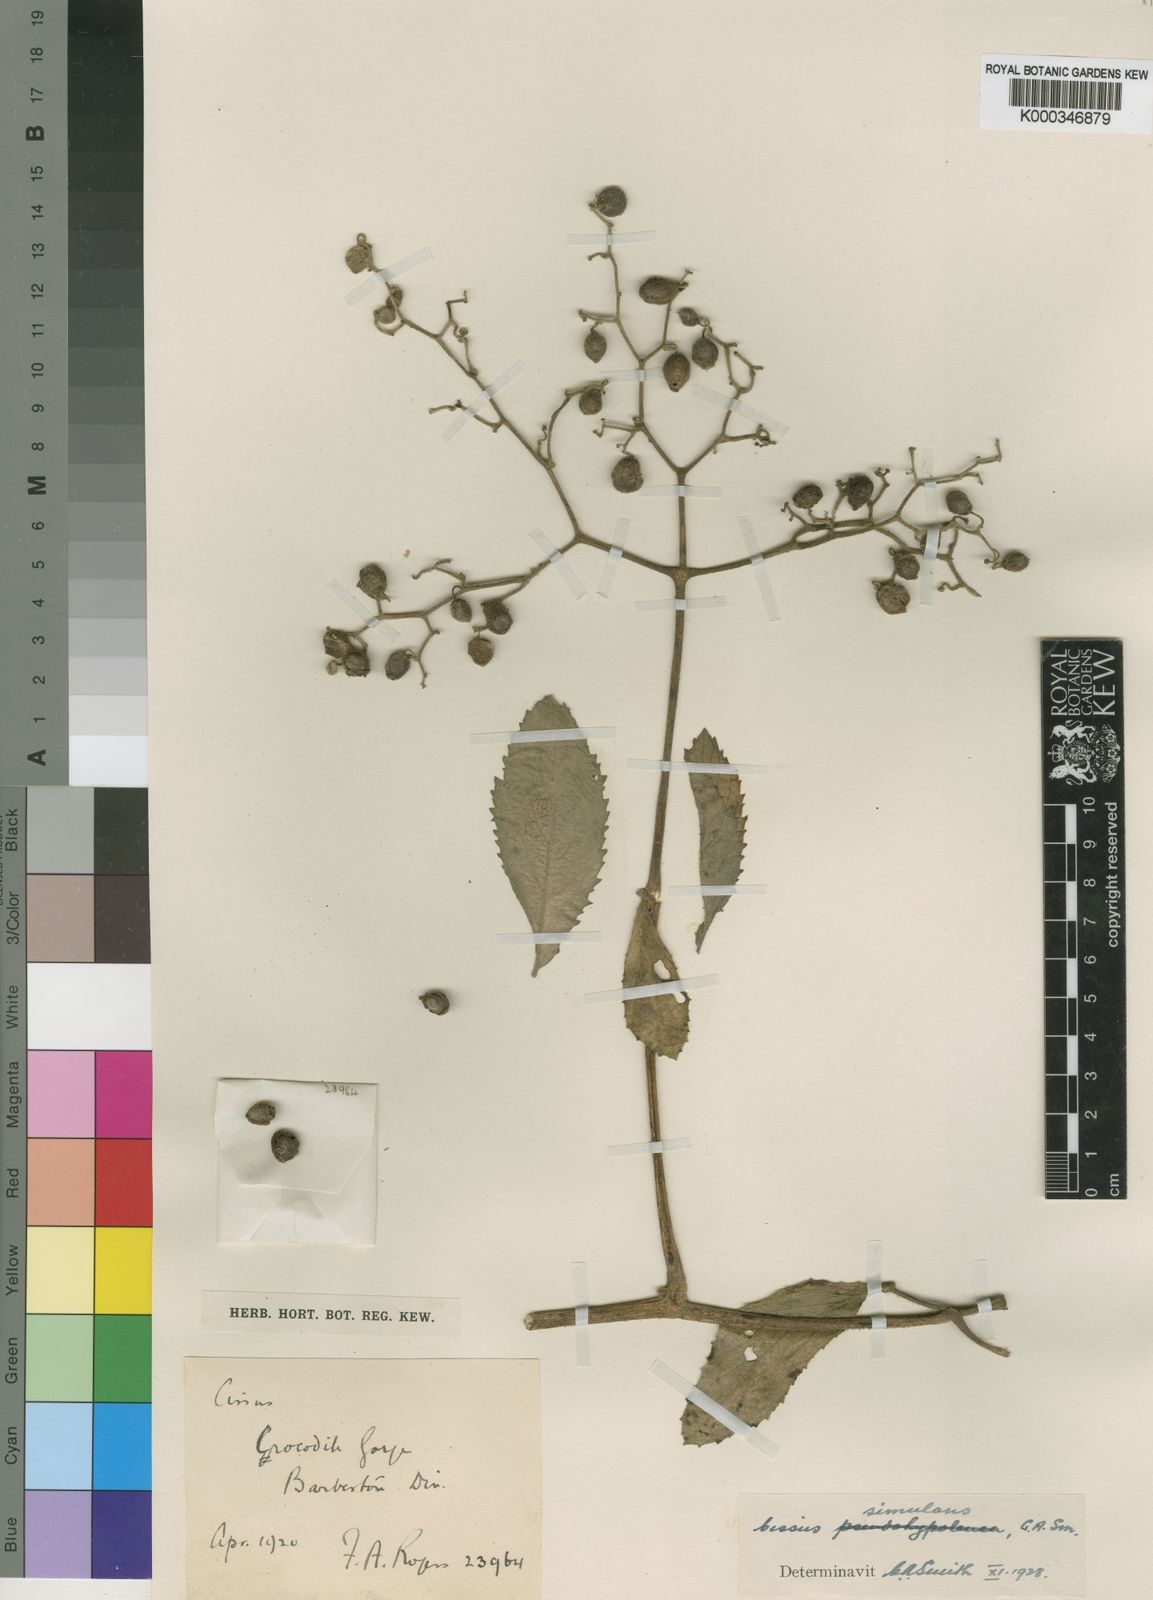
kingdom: Plantae
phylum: Tracheophyta
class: Magnoliopsida
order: Vitales
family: Vitaceae
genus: Cyphostemma
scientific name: Cyphostemma simulans
